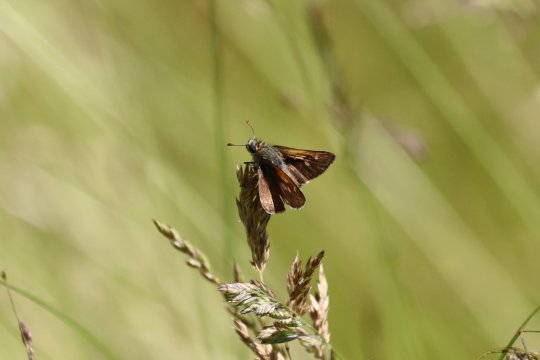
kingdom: Animalia
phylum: Arthropoda
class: Insecta
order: Lepidoptera
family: Hesperiidae
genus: Polites
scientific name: Polites
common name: Long Dash Skipper
